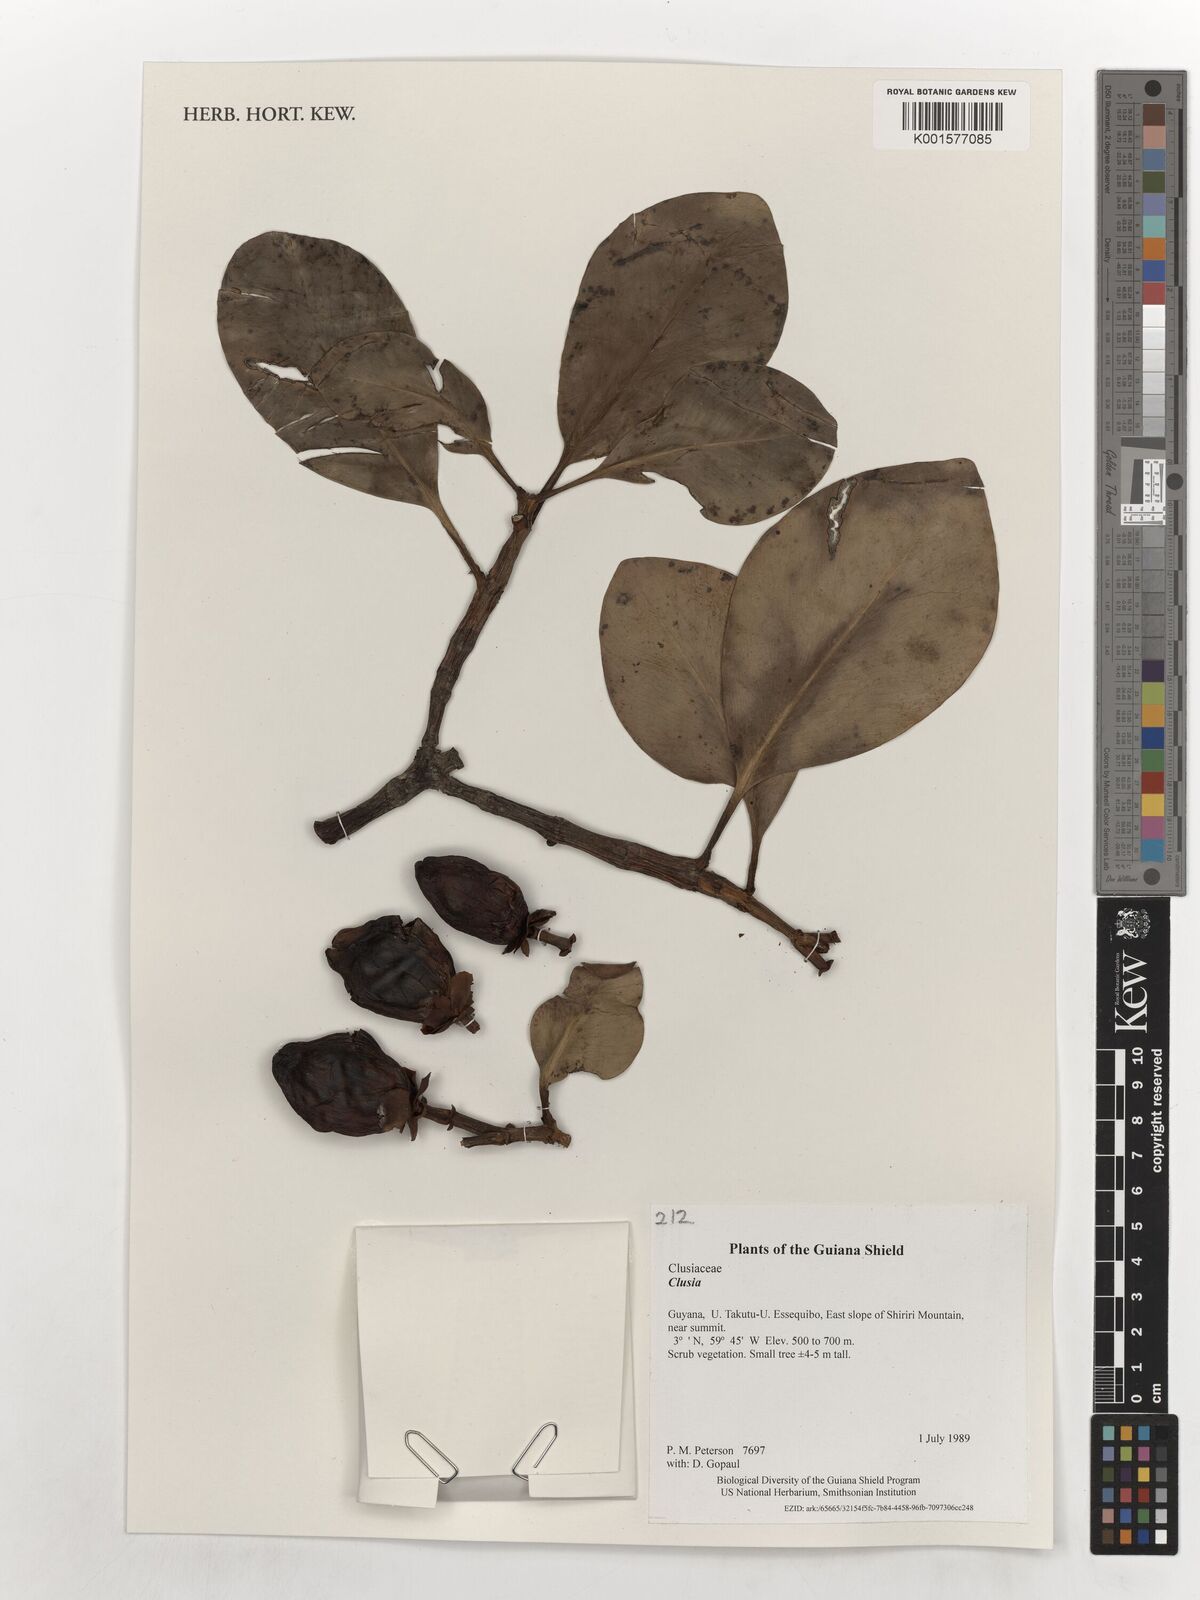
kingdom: Plantae
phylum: Tracheophyta
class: Magnoliopsida
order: Malpighiales
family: Clusiaceae
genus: Clusia
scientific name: Clusia
